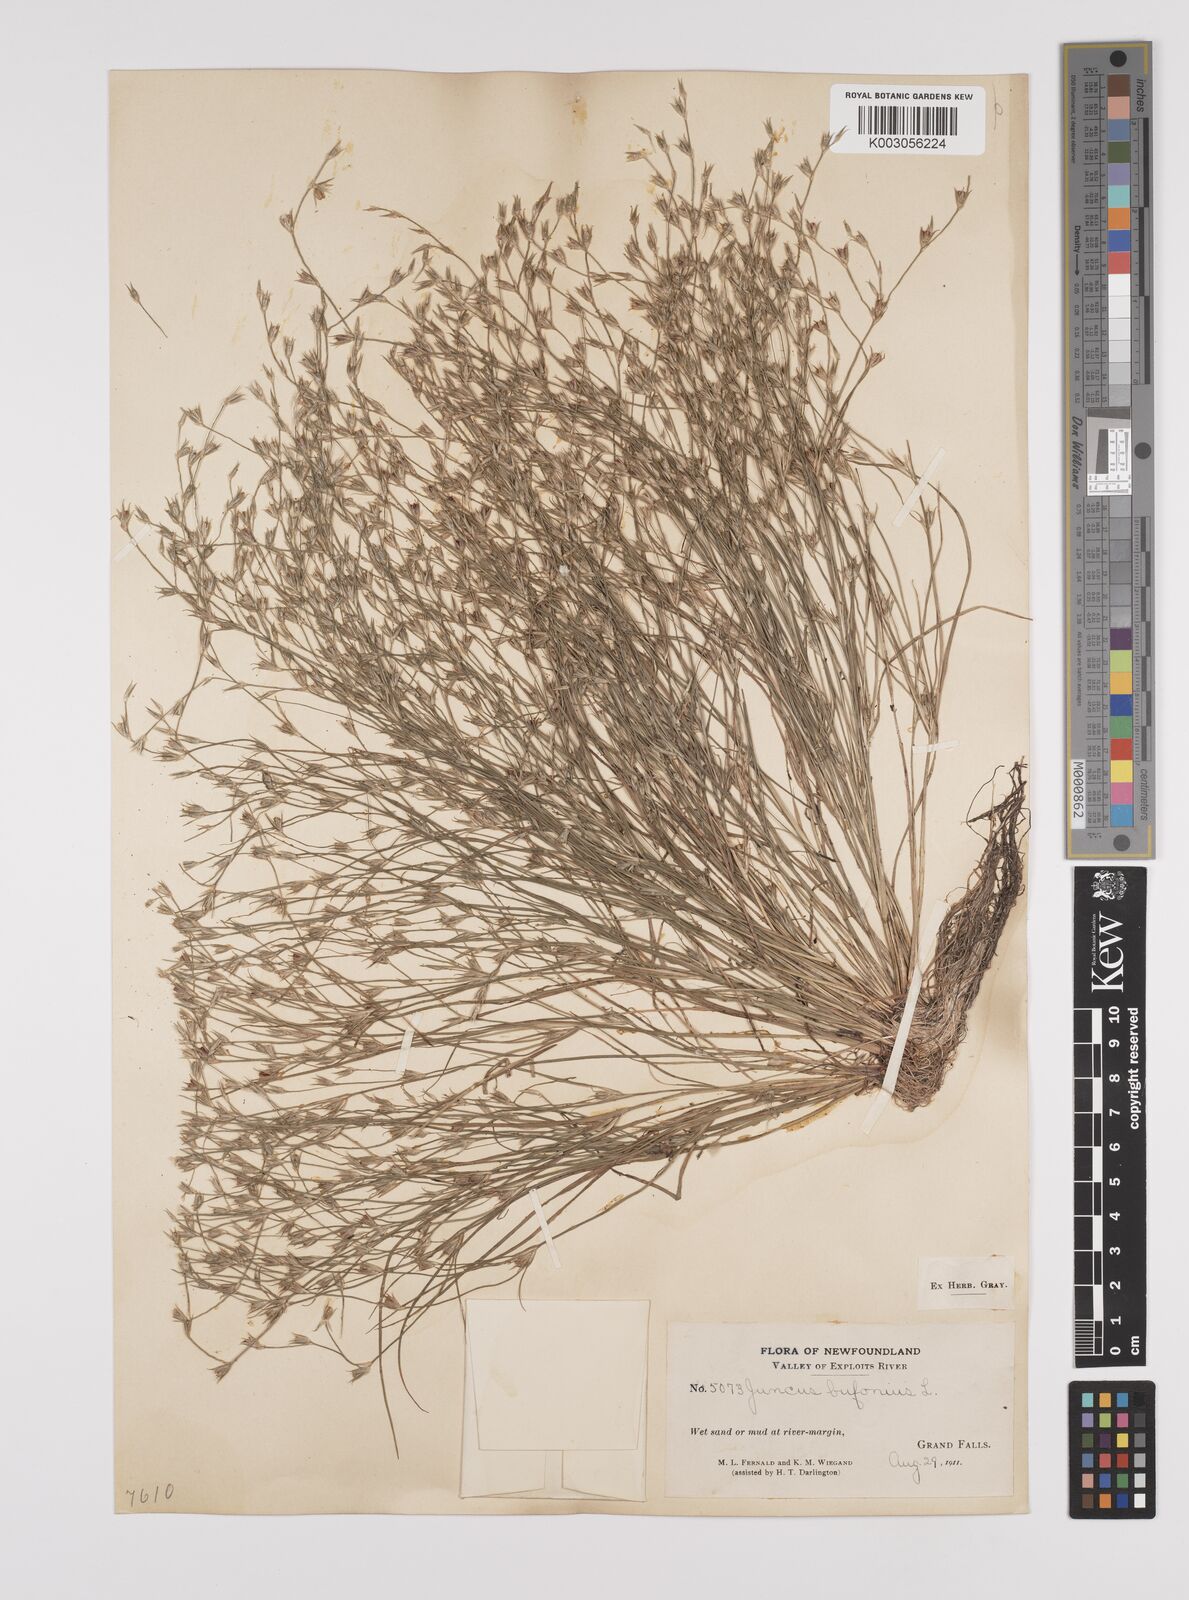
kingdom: Plantae
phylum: Tracheophyta
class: Liliopsida
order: Poales
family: Juncaceae
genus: Juncus
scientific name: Juncus bufonius
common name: Toad rush
